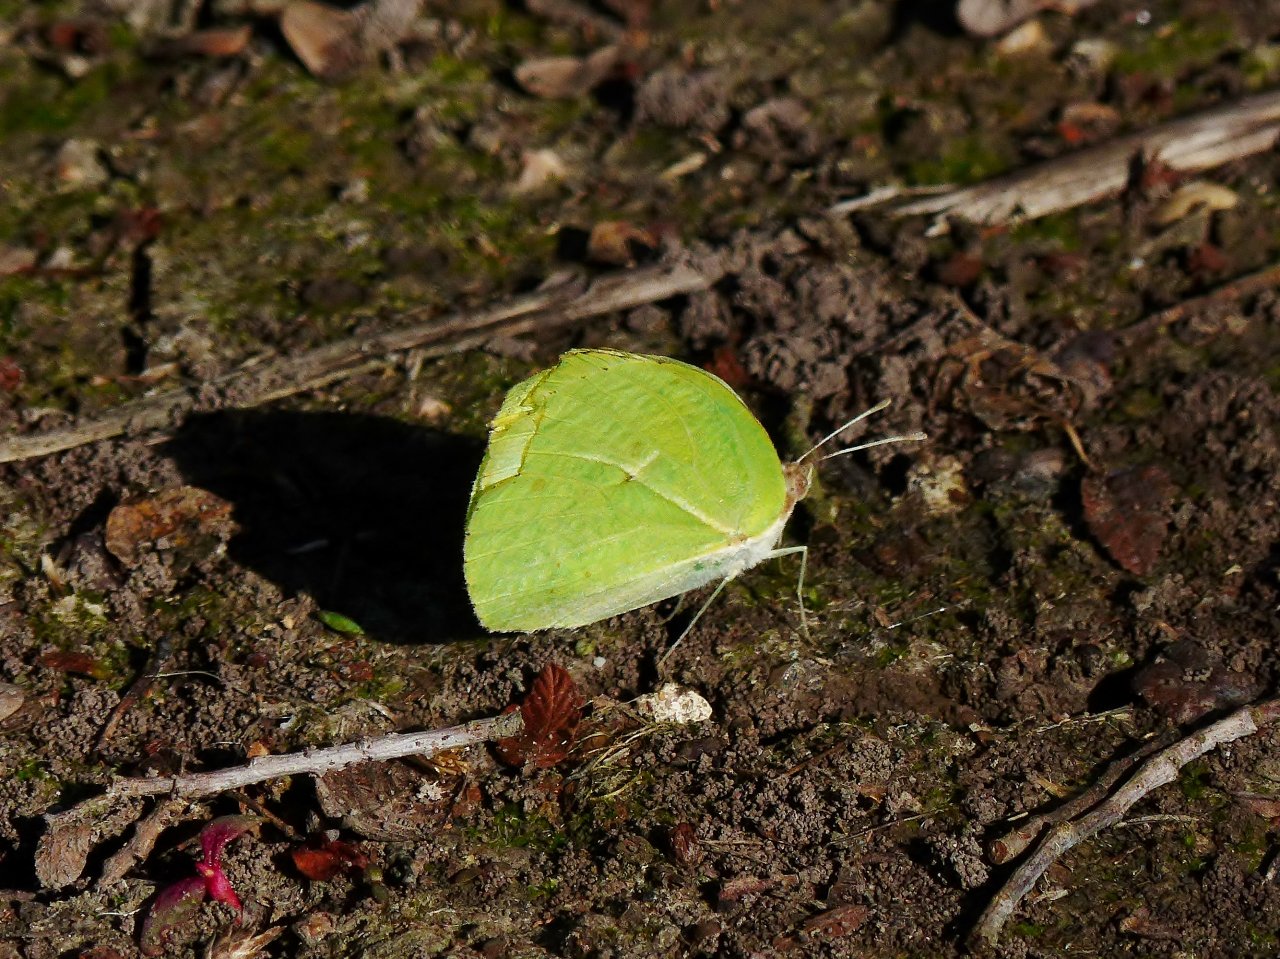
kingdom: Animalia
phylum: Arthropoda
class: Insecta
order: Lepidoptera
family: Pieridae
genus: Kricogonia
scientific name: Kricogonia lyside
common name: Lyside Sulphur
